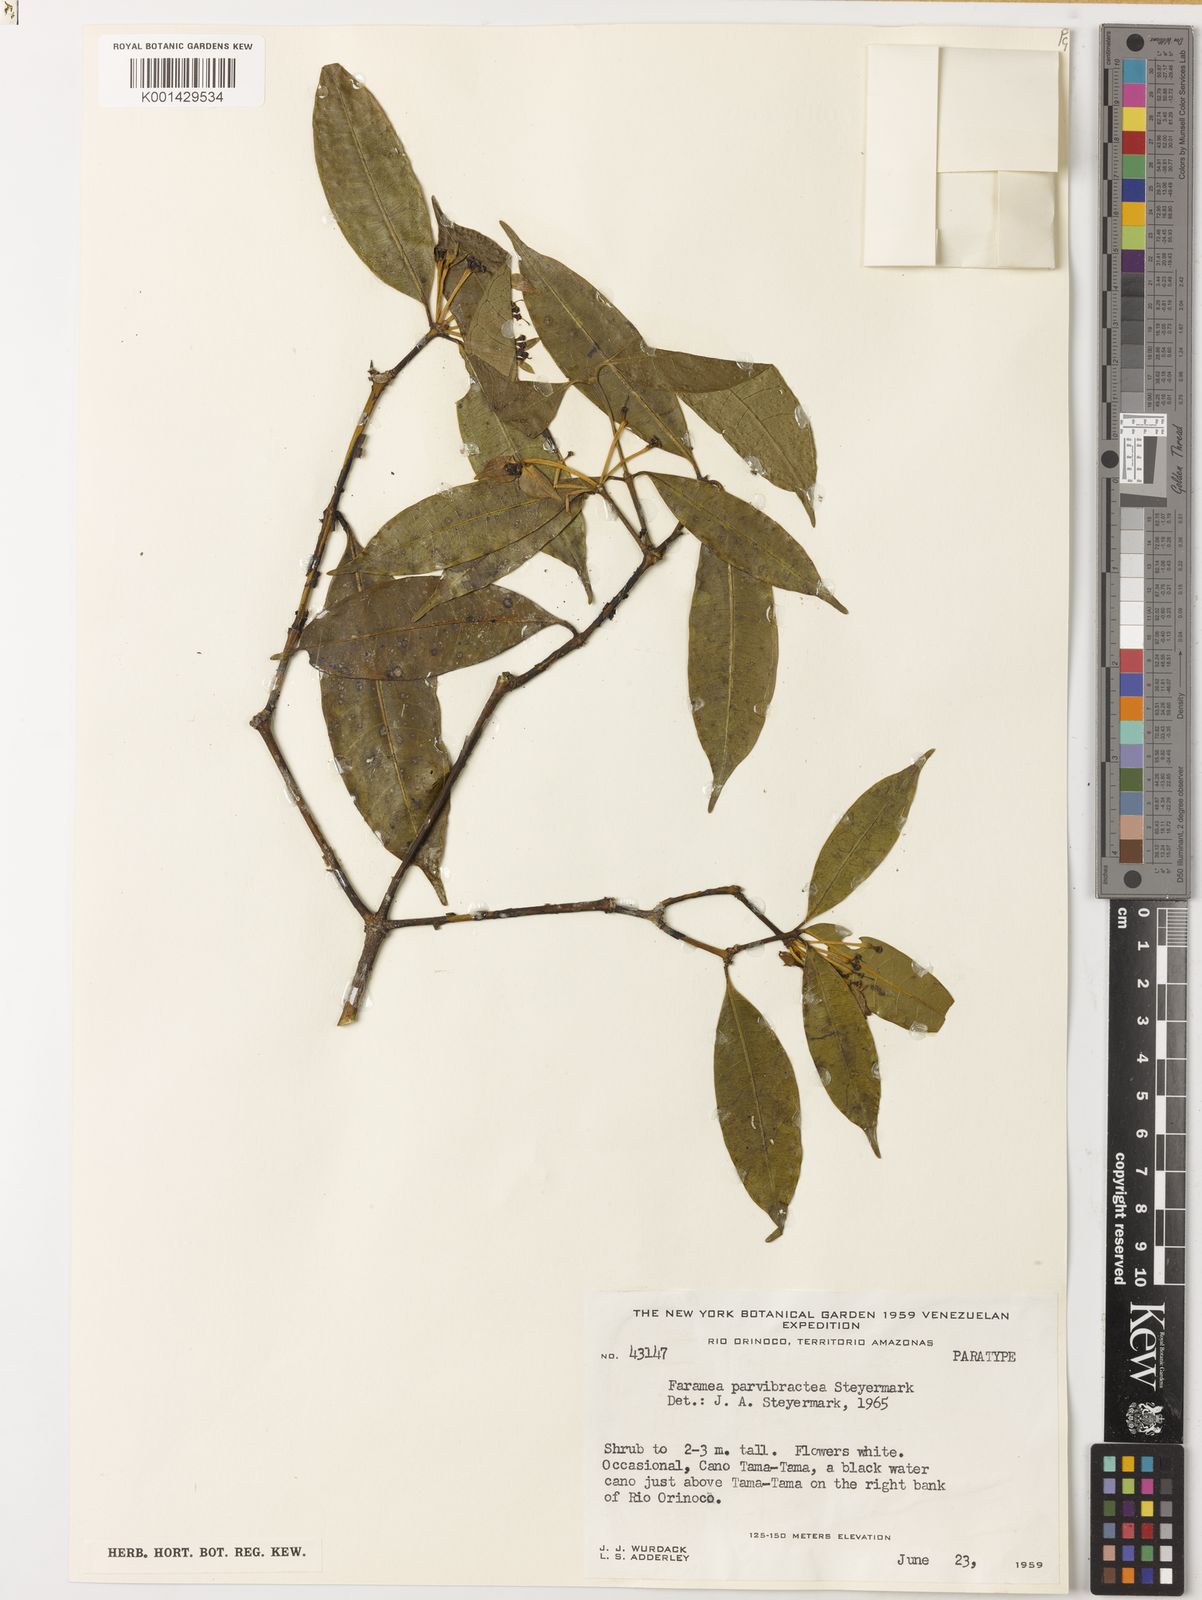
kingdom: Plantae
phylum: Tracheophyta
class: Magnoliopsida
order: Gentianales
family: Rubiaceae
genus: Faramea
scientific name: Faramea parvibractea
